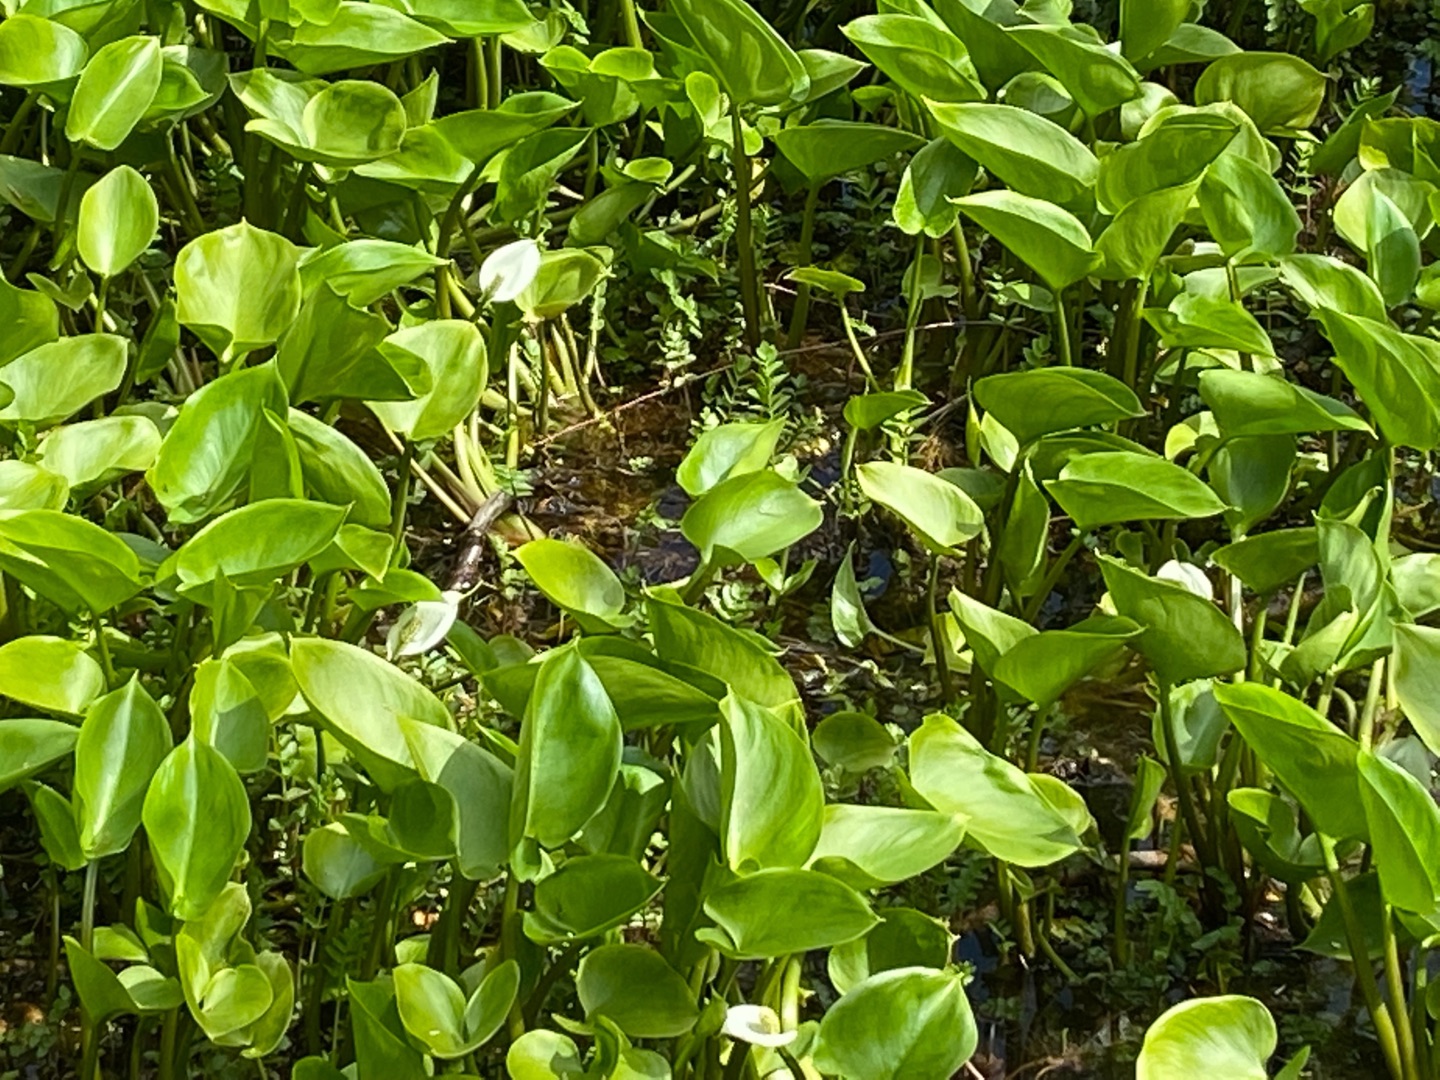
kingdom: Plantae
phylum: Tracheophyta
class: Liliopsida
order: Alismatales
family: Araceae
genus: Calla
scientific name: Calla palustris
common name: Kærmysse
